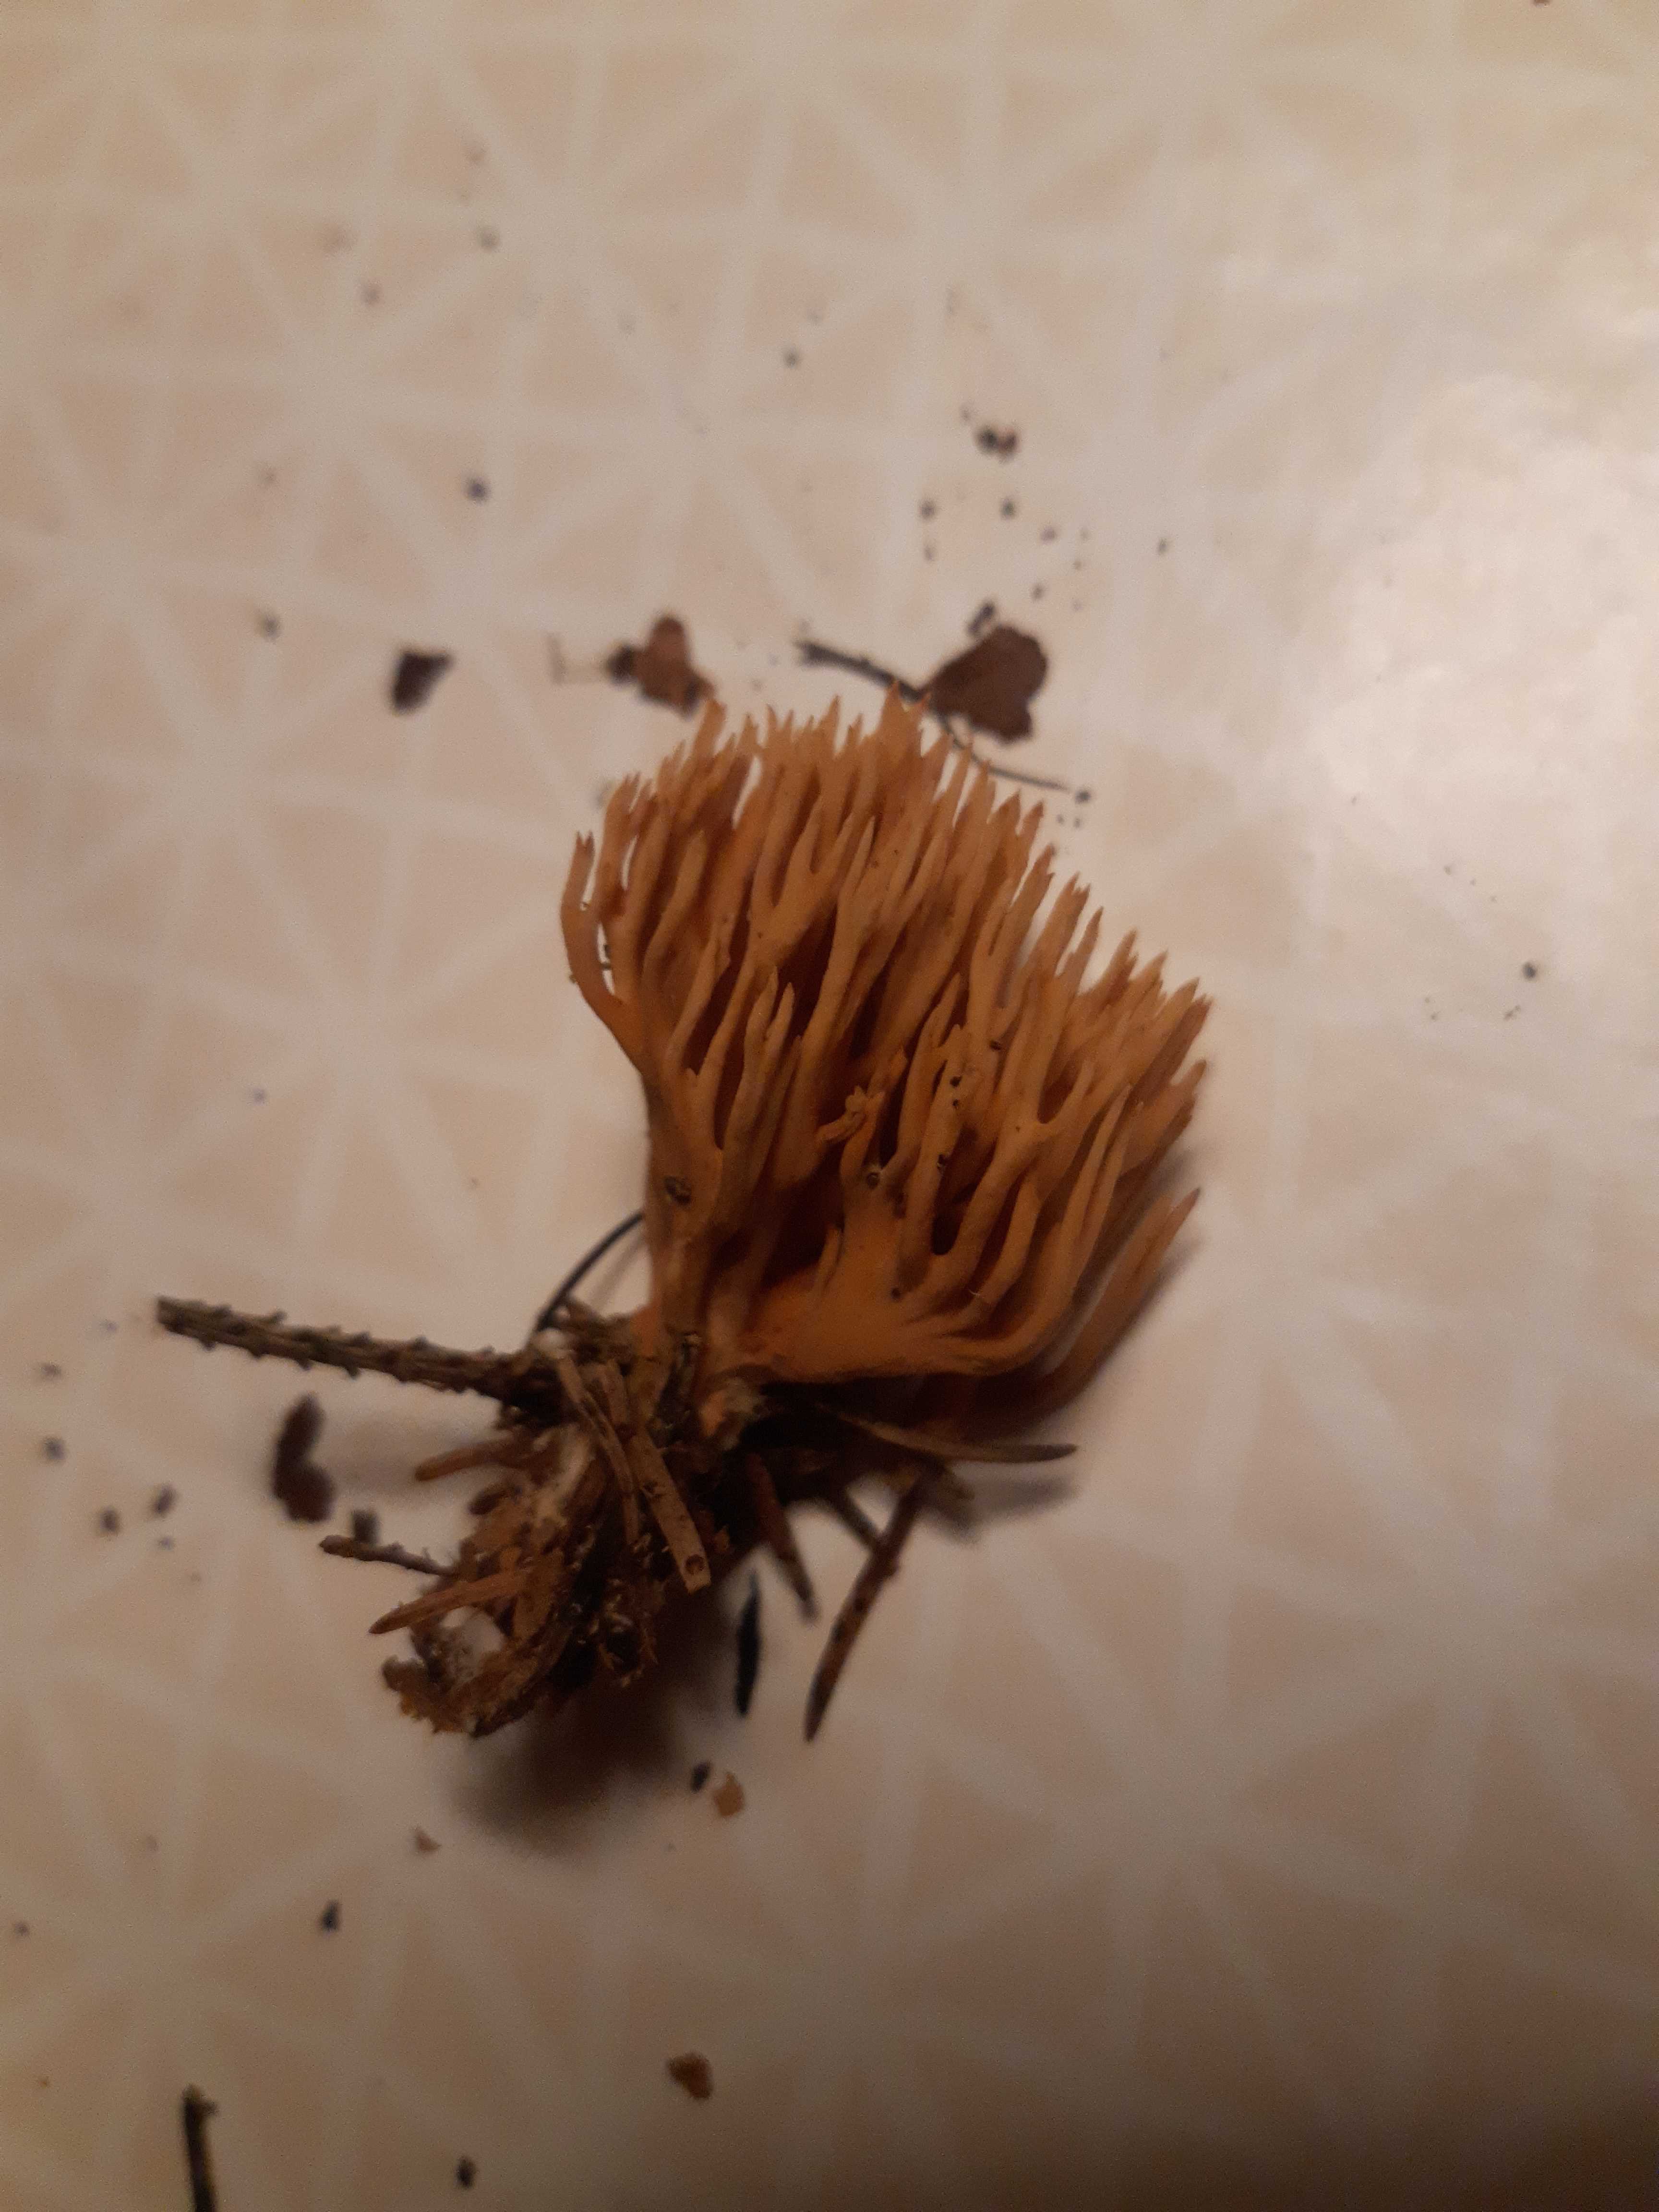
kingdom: Fungi
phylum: Basidiomycota
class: Agaricomycetes
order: Gomphales
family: Gomphaceae
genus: Phaeoclavulina
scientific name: Phaeoclavulina eumorpha
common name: gran-koralsvamp
